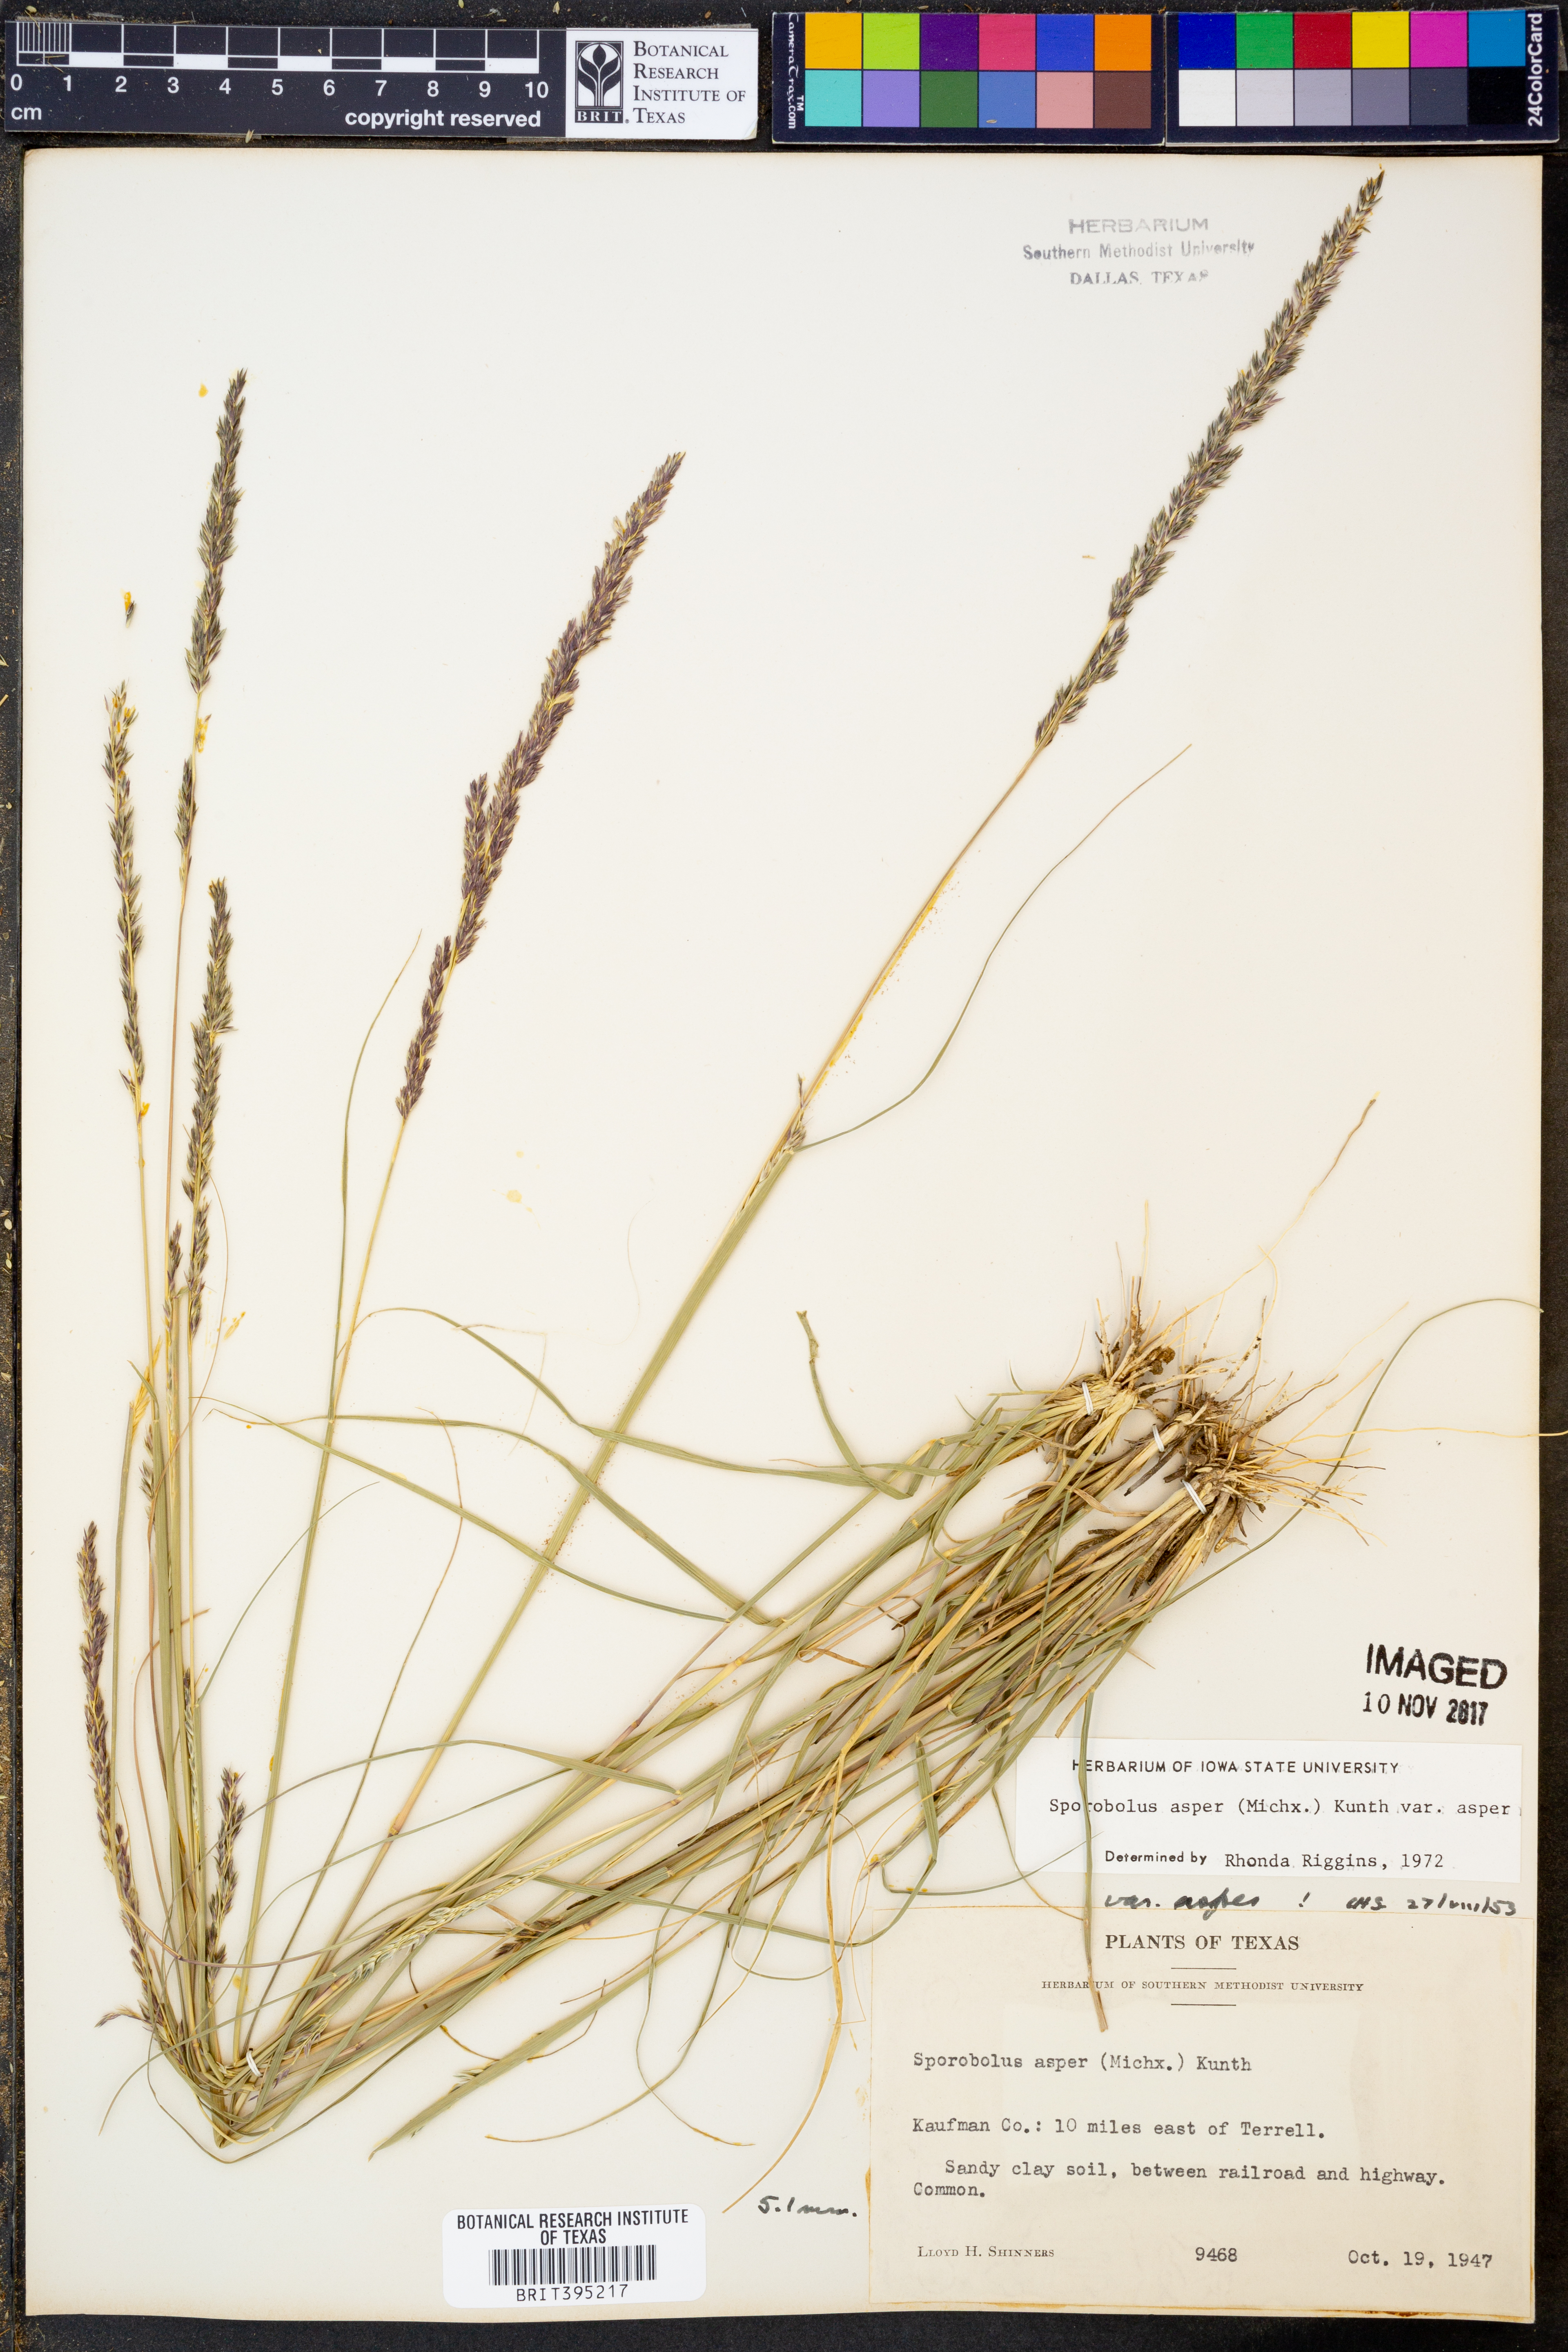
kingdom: Plantae
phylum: Tracheophyta
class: Liliopsida
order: Poales
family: Poaceae
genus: Sporobolus
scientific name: Sporobolus compositus
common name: Rough dropseed
